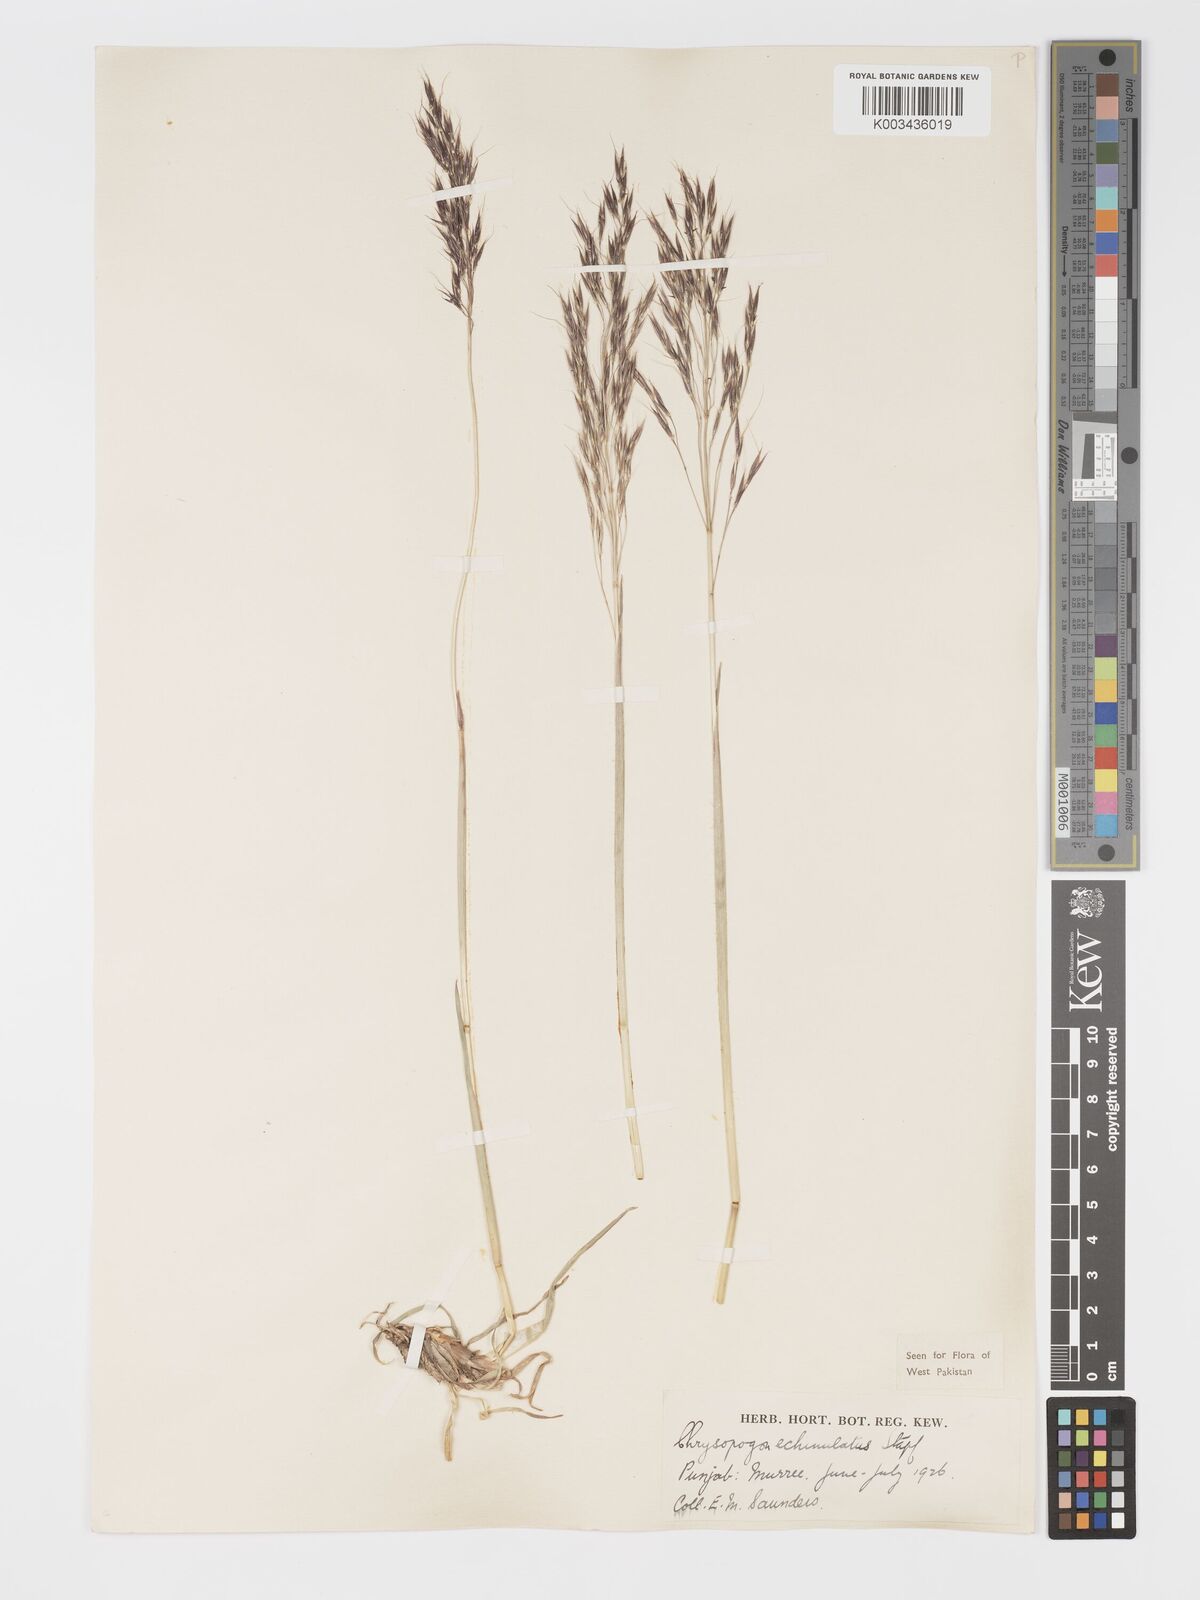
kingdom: Plantae
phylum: Tracheophyta
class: Liliopsida
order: Poales
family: Poaceae
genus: Chrysopogon
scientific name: Chrysopogon gryllus
